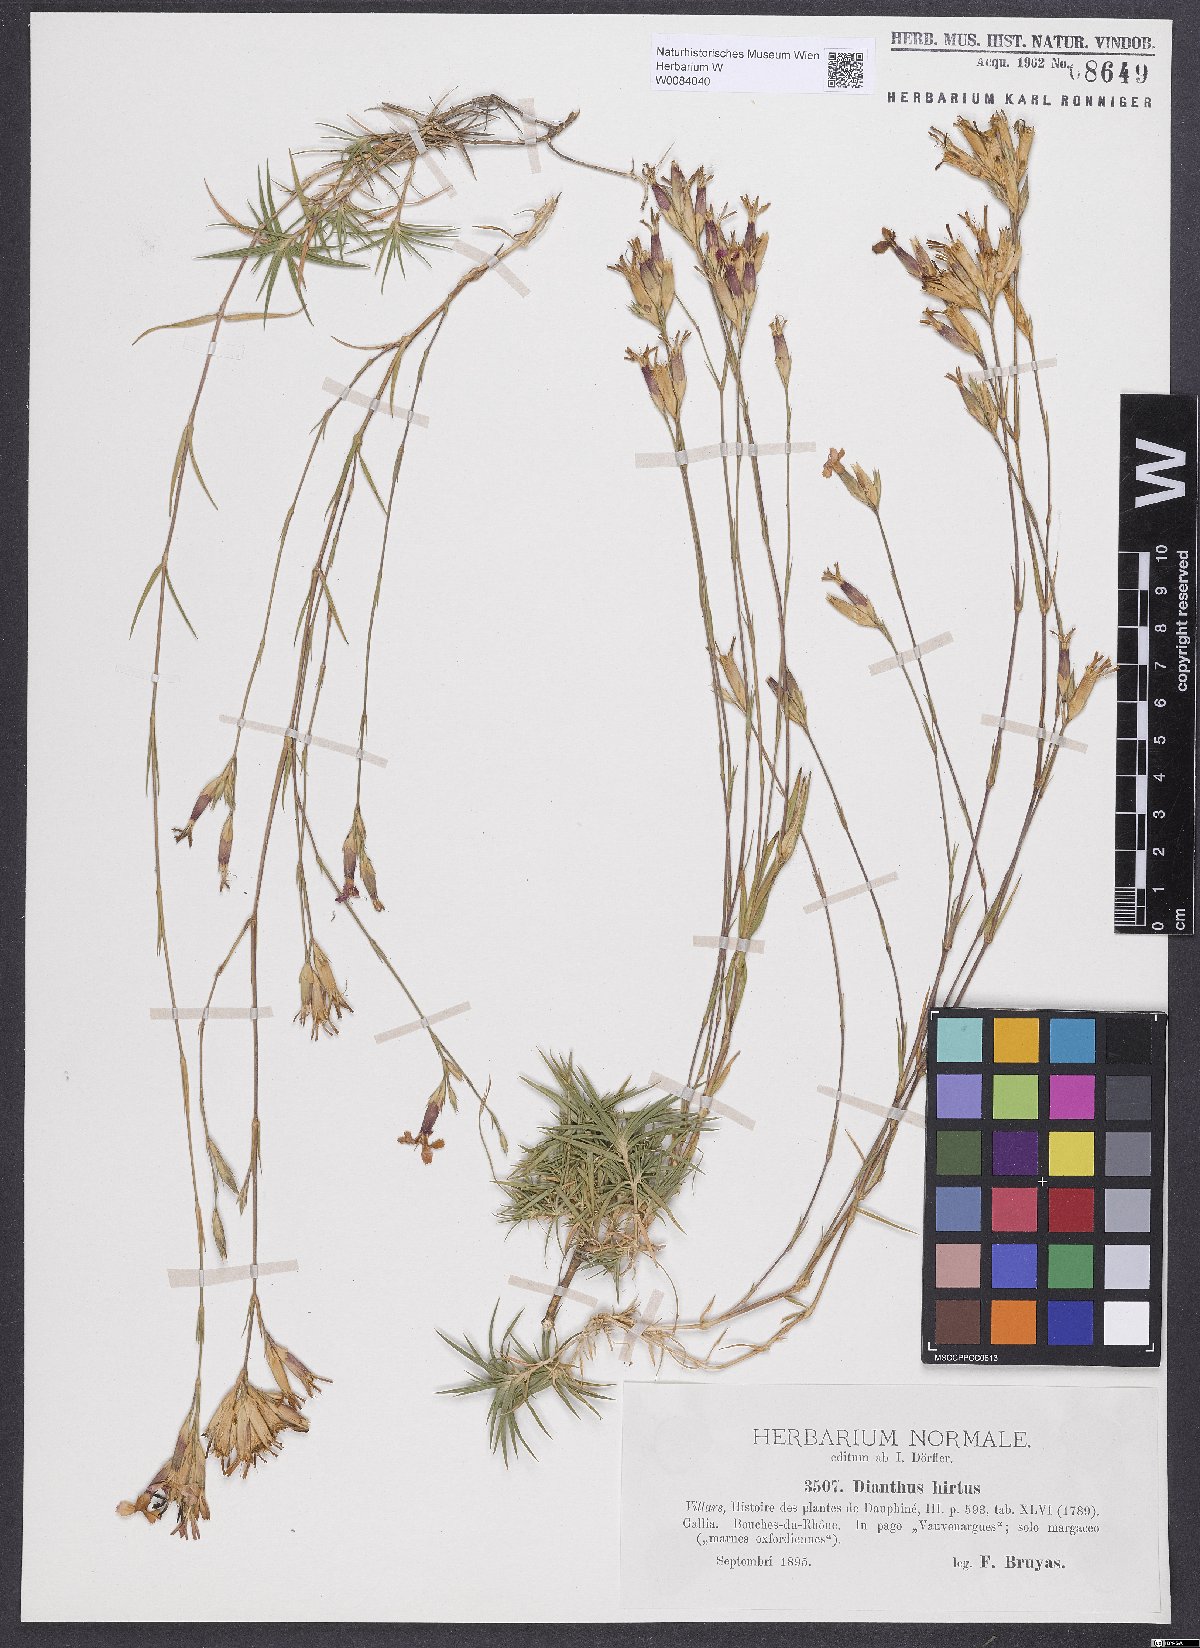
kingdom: Plantae
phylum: Tracheophyta
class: Magnoliopsida
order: Caryophyllales
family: Caryophyllaceae
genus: Dianthus
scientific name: Dianthus scaber
